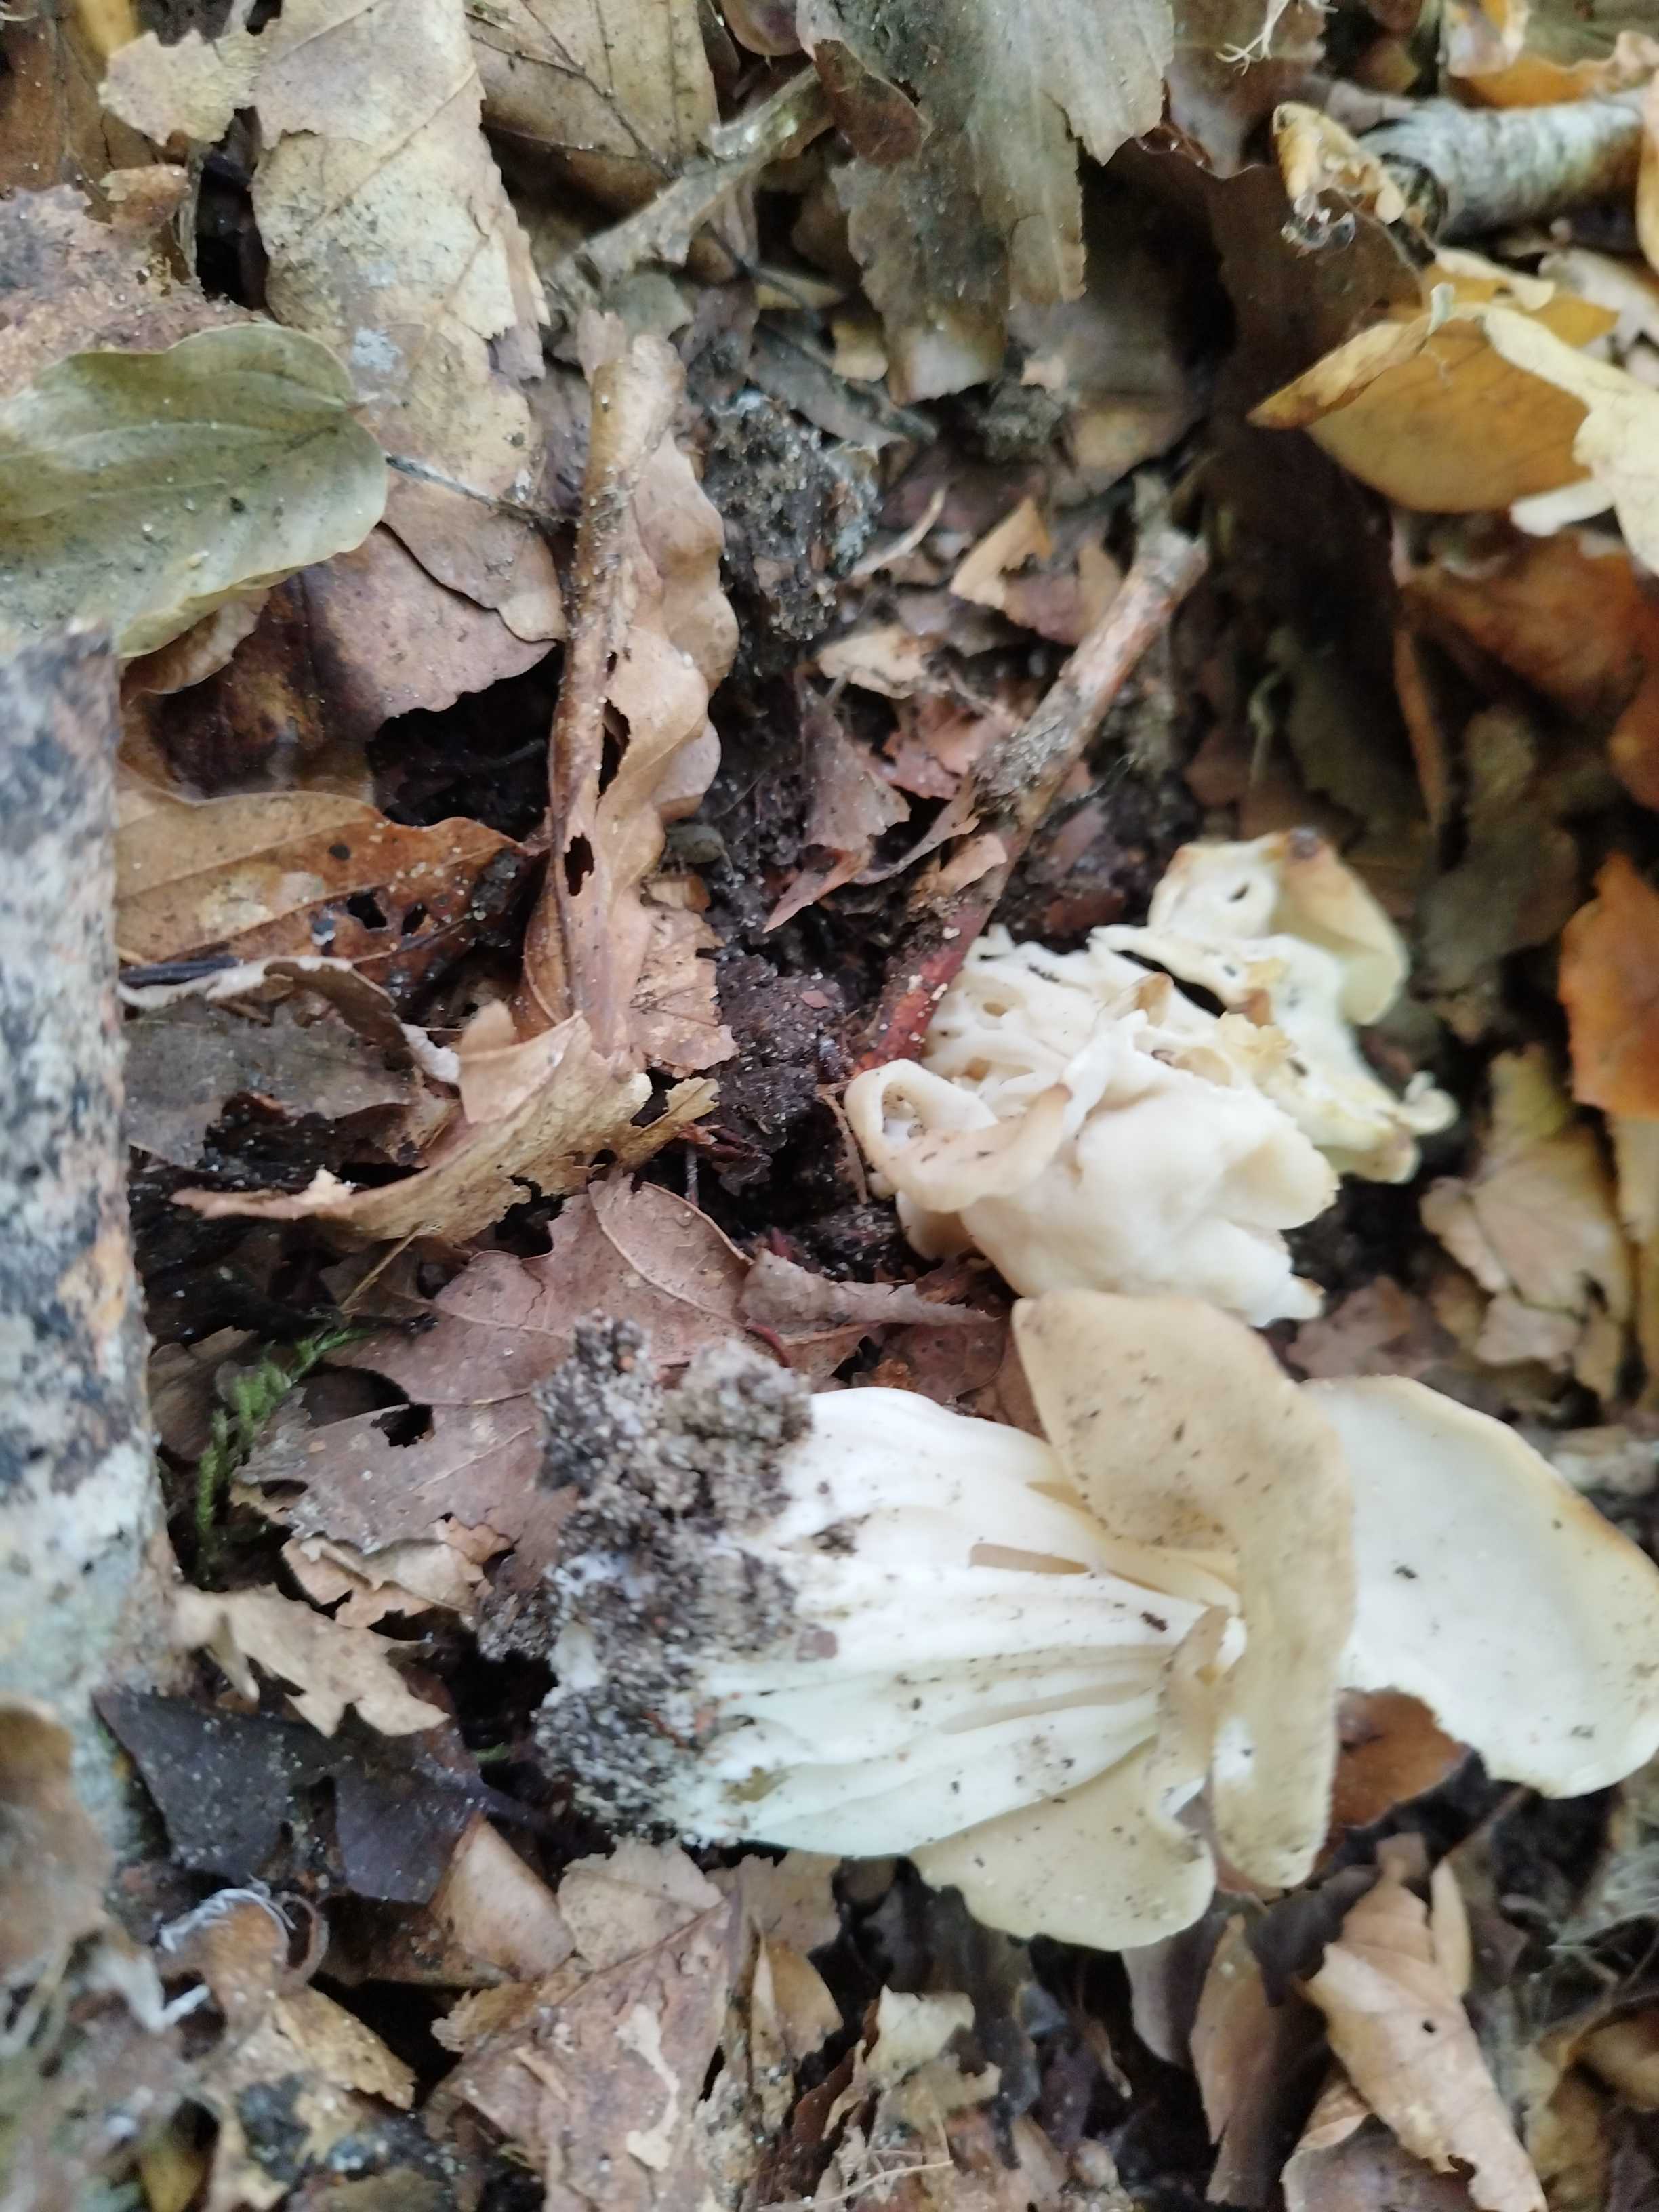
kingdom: Fungi
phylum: Ascomycota
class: Pezizomycetes
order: Pezizales
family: Helvellaceae
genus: Helvella
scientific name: Helvella crispa
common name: kruset foldhat
